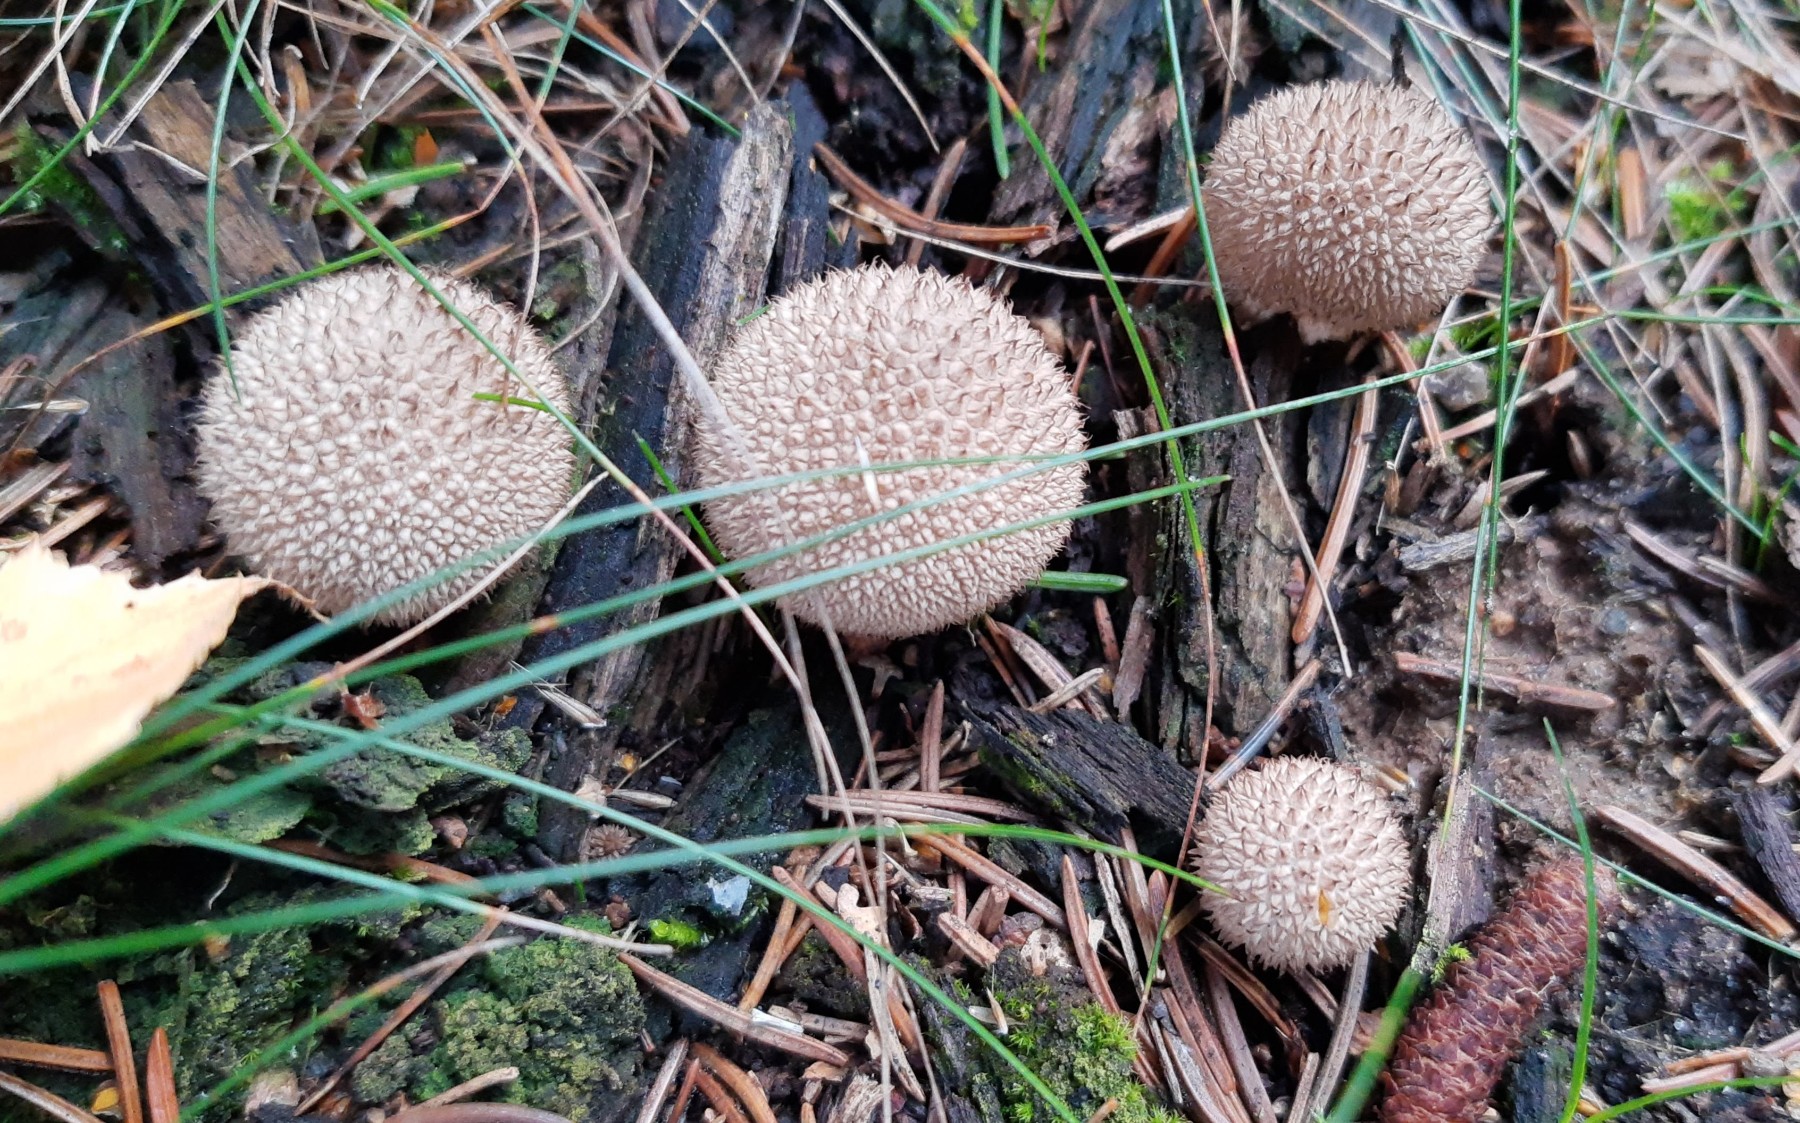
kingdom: Fungi
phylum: Basidiomycota
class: Agaricomycetes
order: Agaricales
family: Lycoperdaceae
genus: Lycoperdon
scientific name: Lycoperdon nigrescens
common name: sortagtig støvbold
